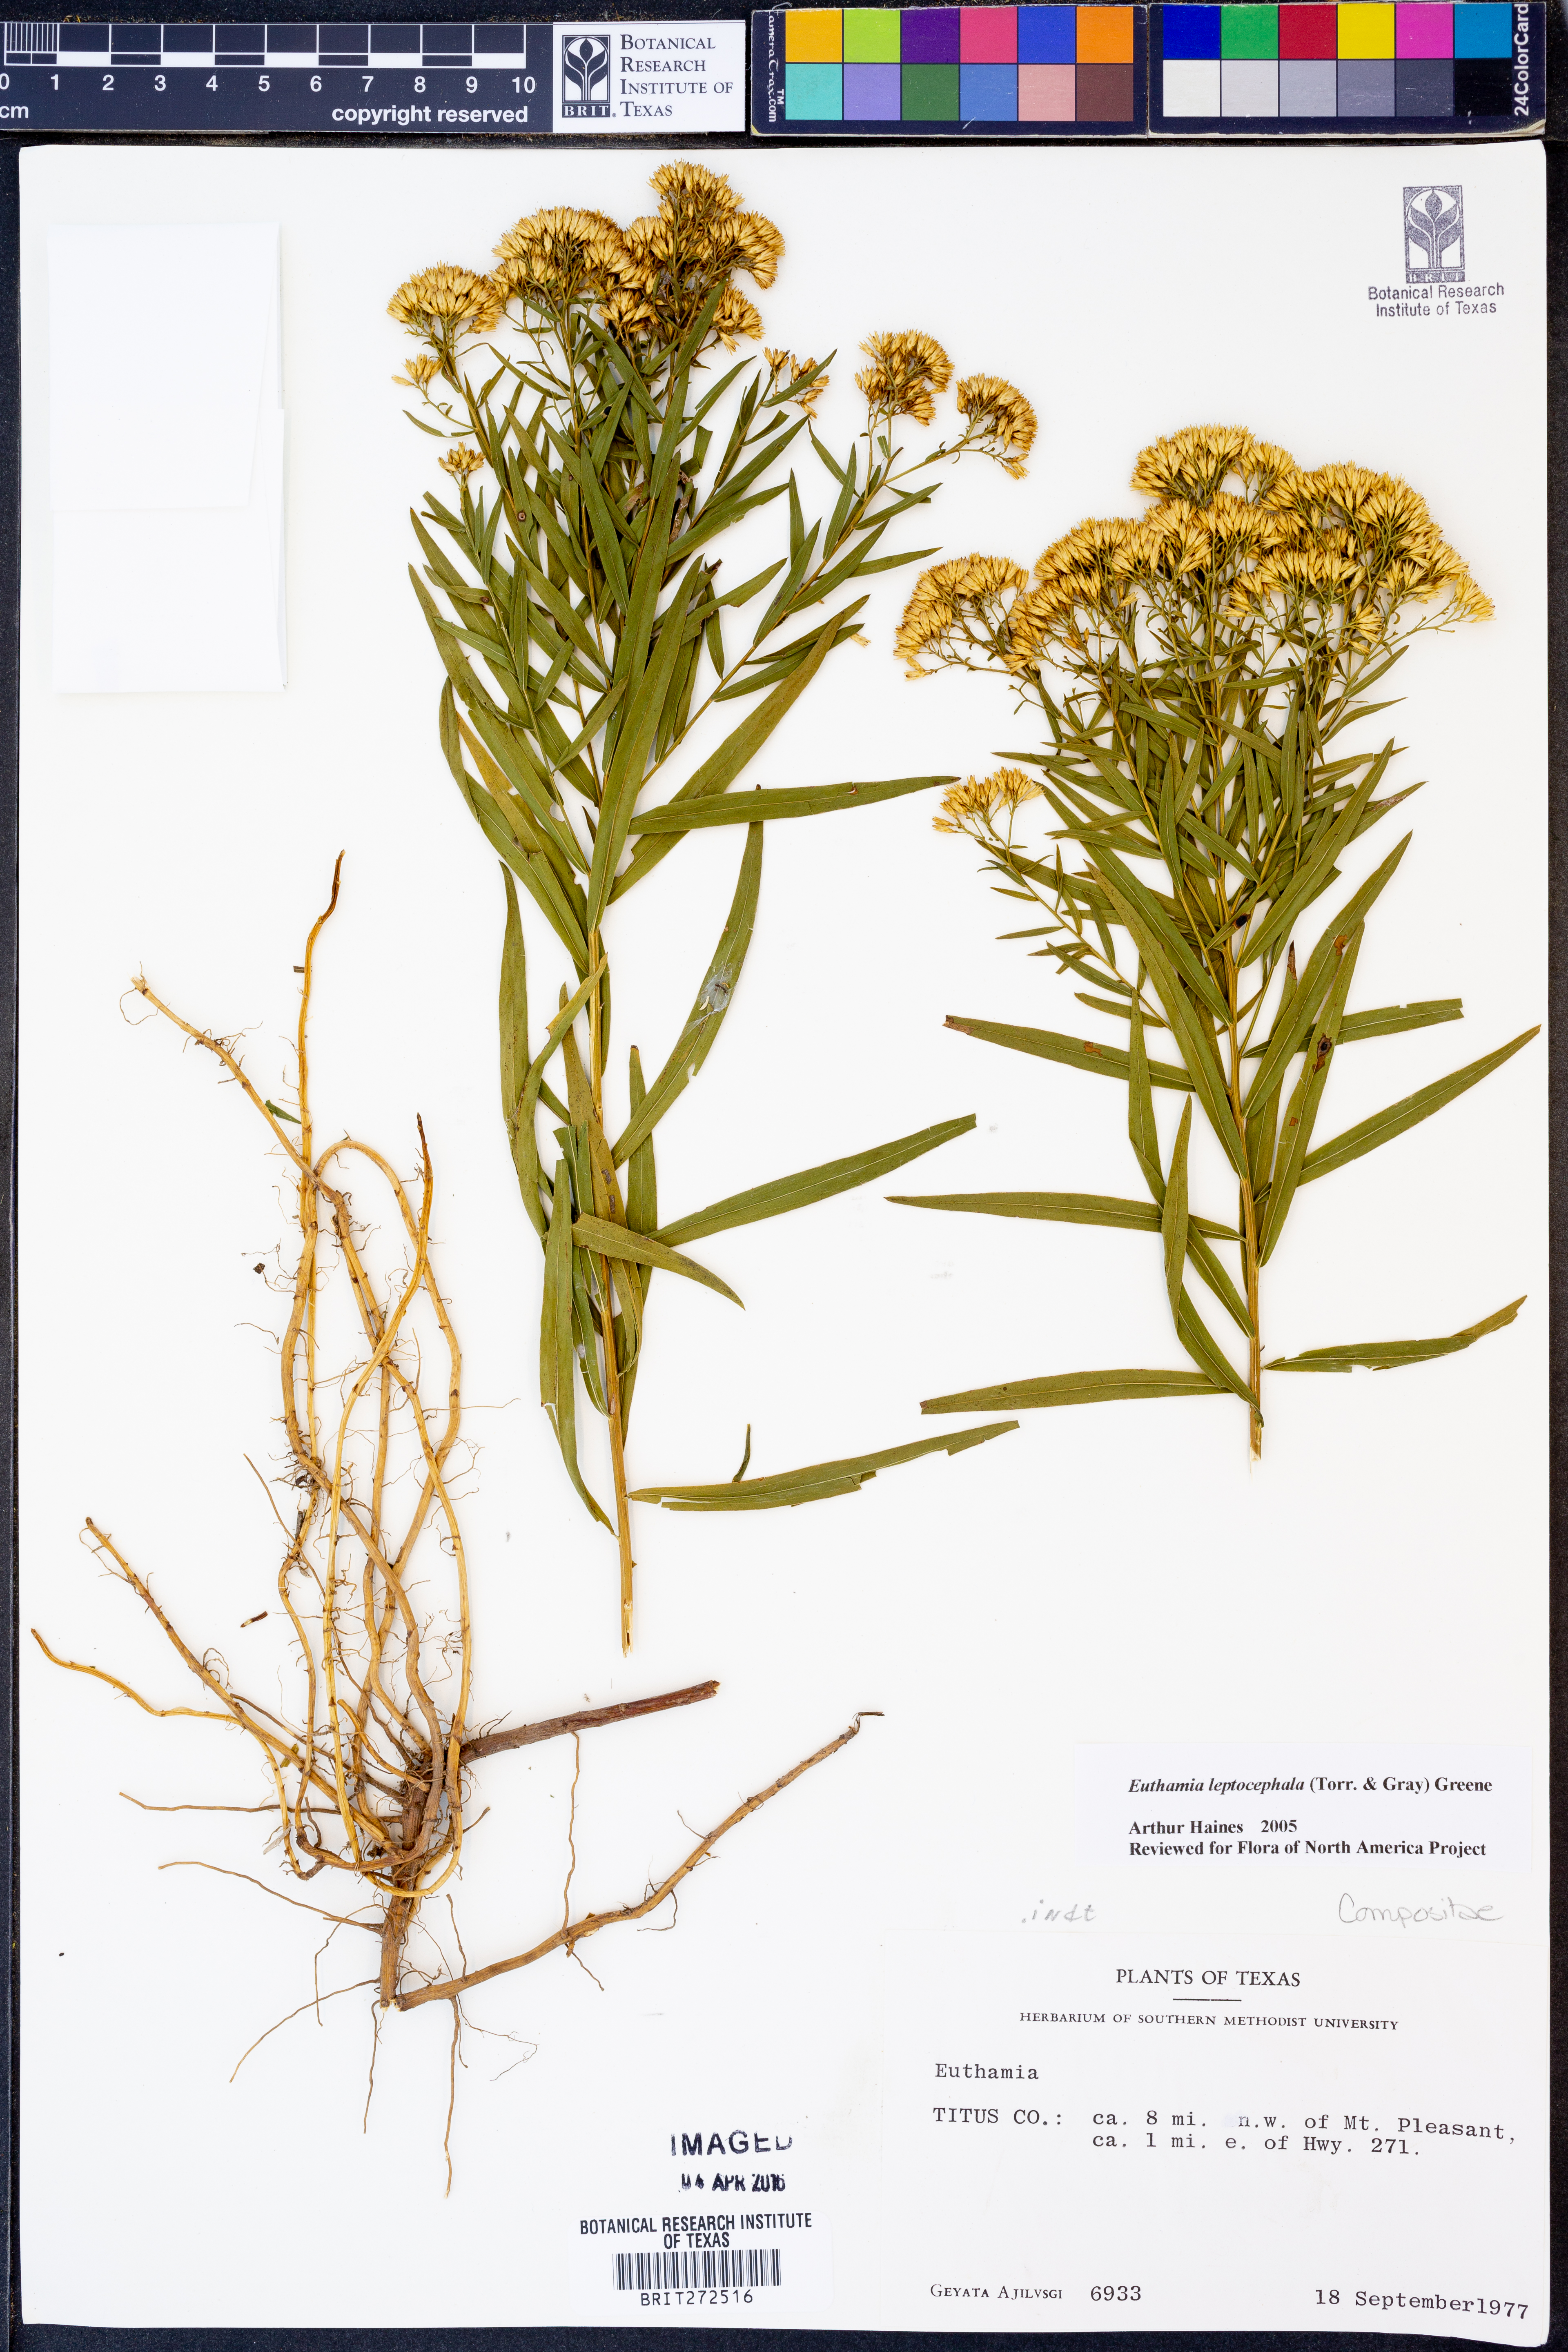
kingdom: Plantae
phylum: Tracheophyta
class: Magnoliopsida
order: Asterales
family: Asteraceae
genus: Euthamia
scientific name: Euthamia leptocephala
